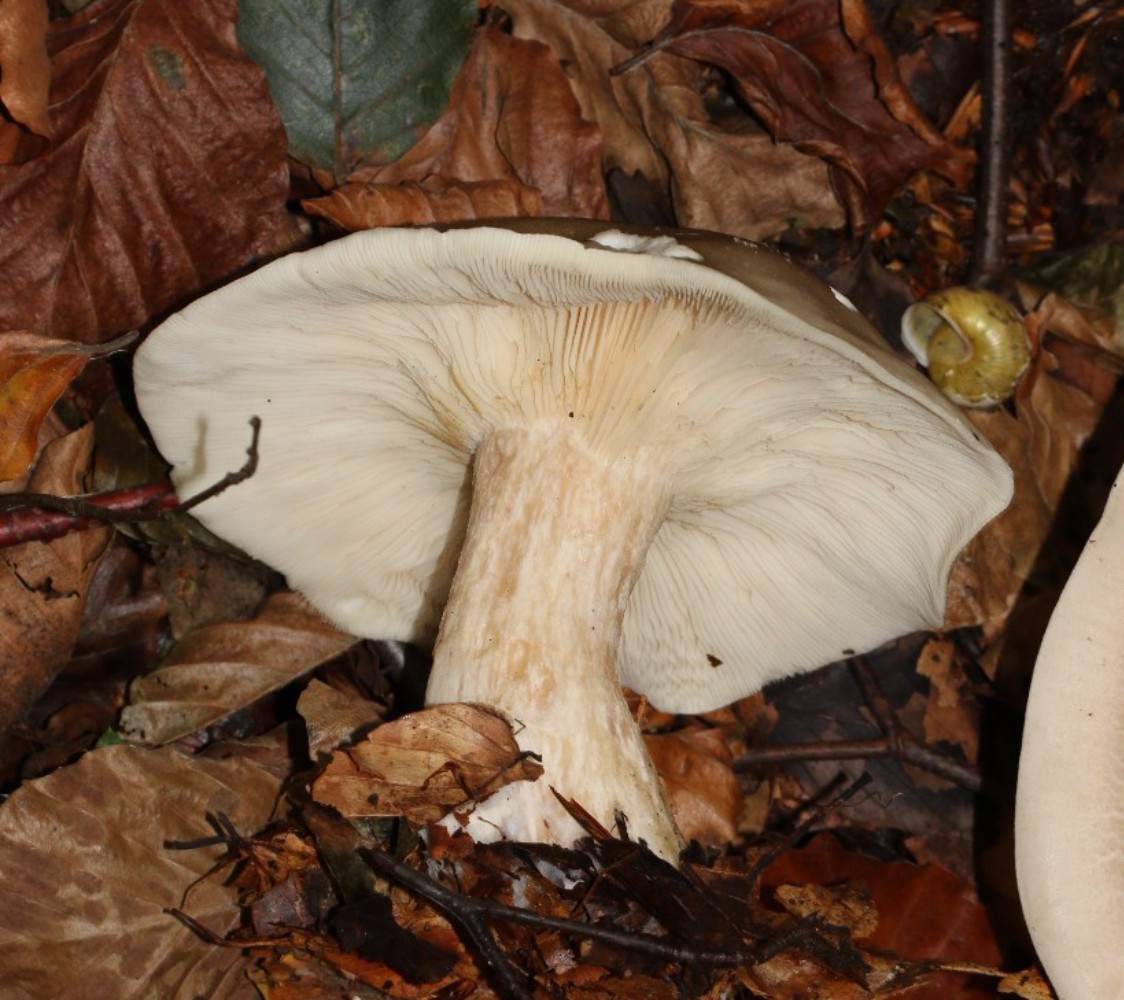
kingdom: Fungi
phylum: Basidiomycota
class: Agaricomycetes
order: Agaricales
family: Tricholomataceae
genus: Clitocybe
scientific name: Clitocybe nebularis
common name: tåge-tragthat
